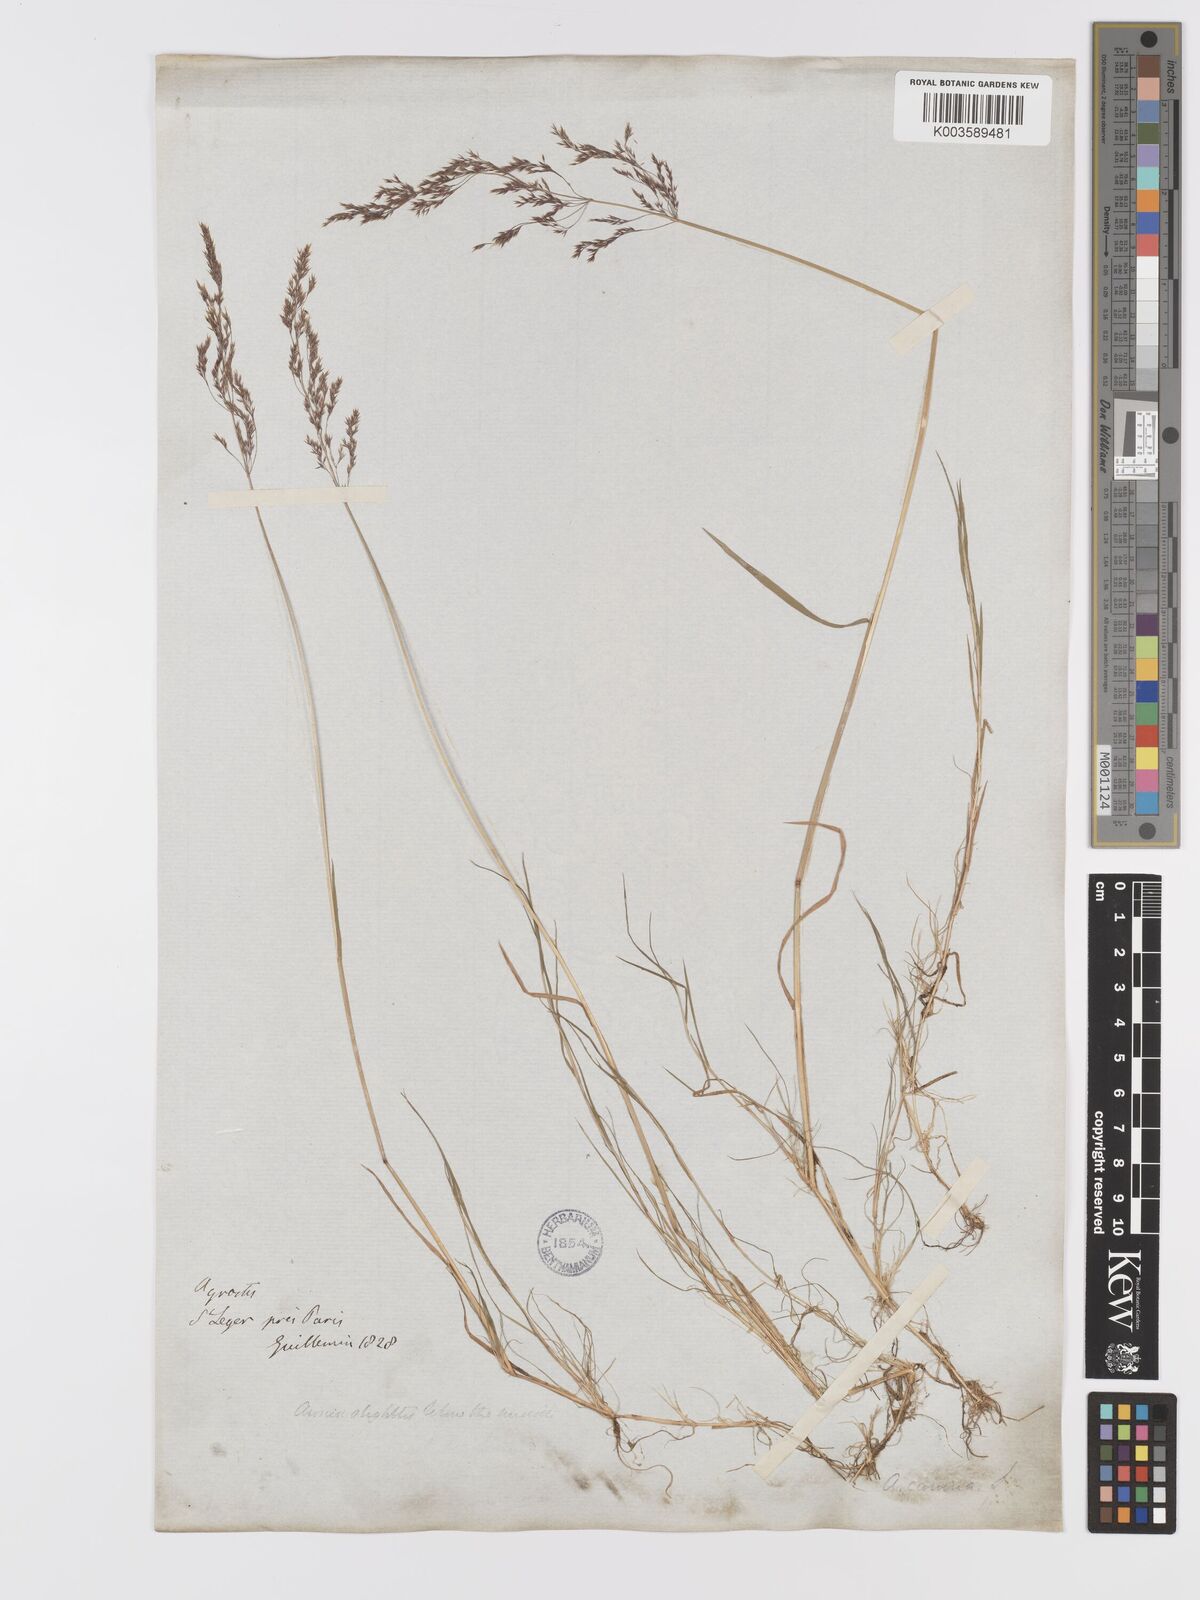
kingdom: Plantae
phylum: Tracheophyta
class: Liliopsida
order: Poales
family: Poaceae
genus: Agrostis
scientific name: Agrostis canina
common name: Velvet bent
